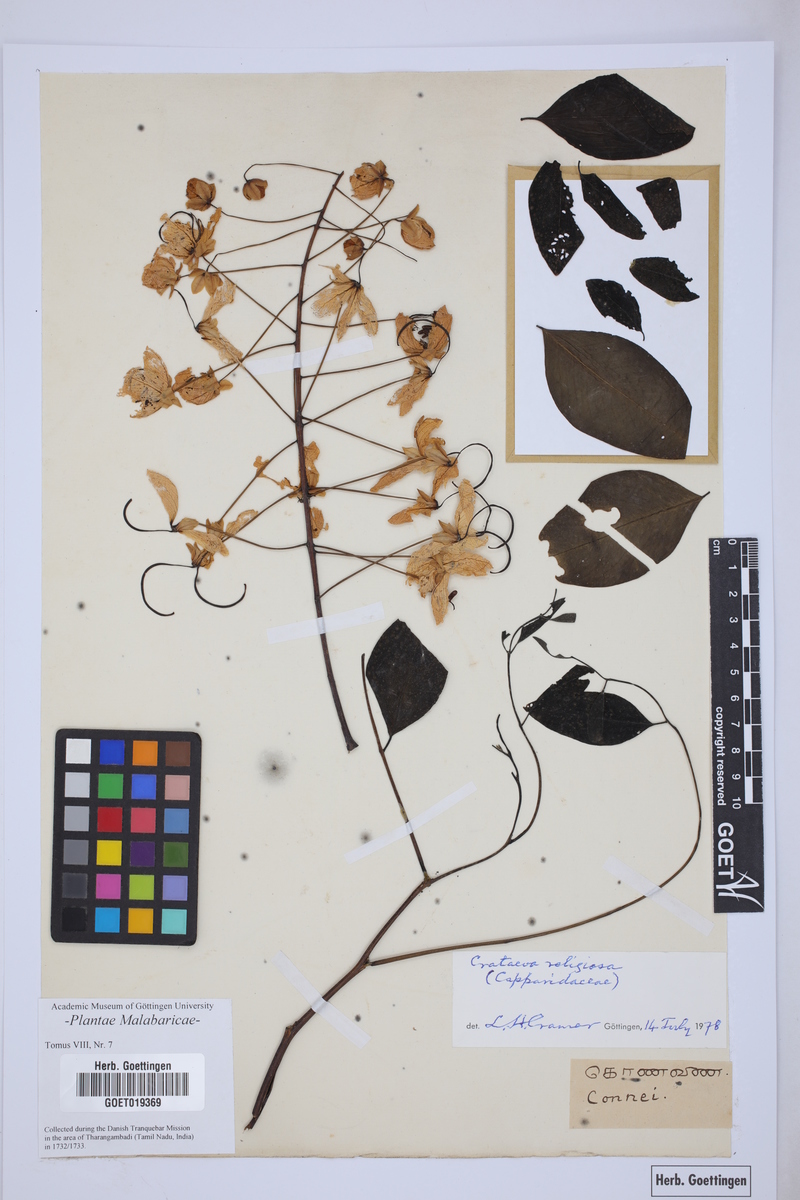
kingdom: Plantae
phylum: Tracheophyta
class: Magnoliopsida
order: Brassicales
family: Capparaceae
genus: Crateva
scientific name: Crateva religiosa
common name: March dalur
